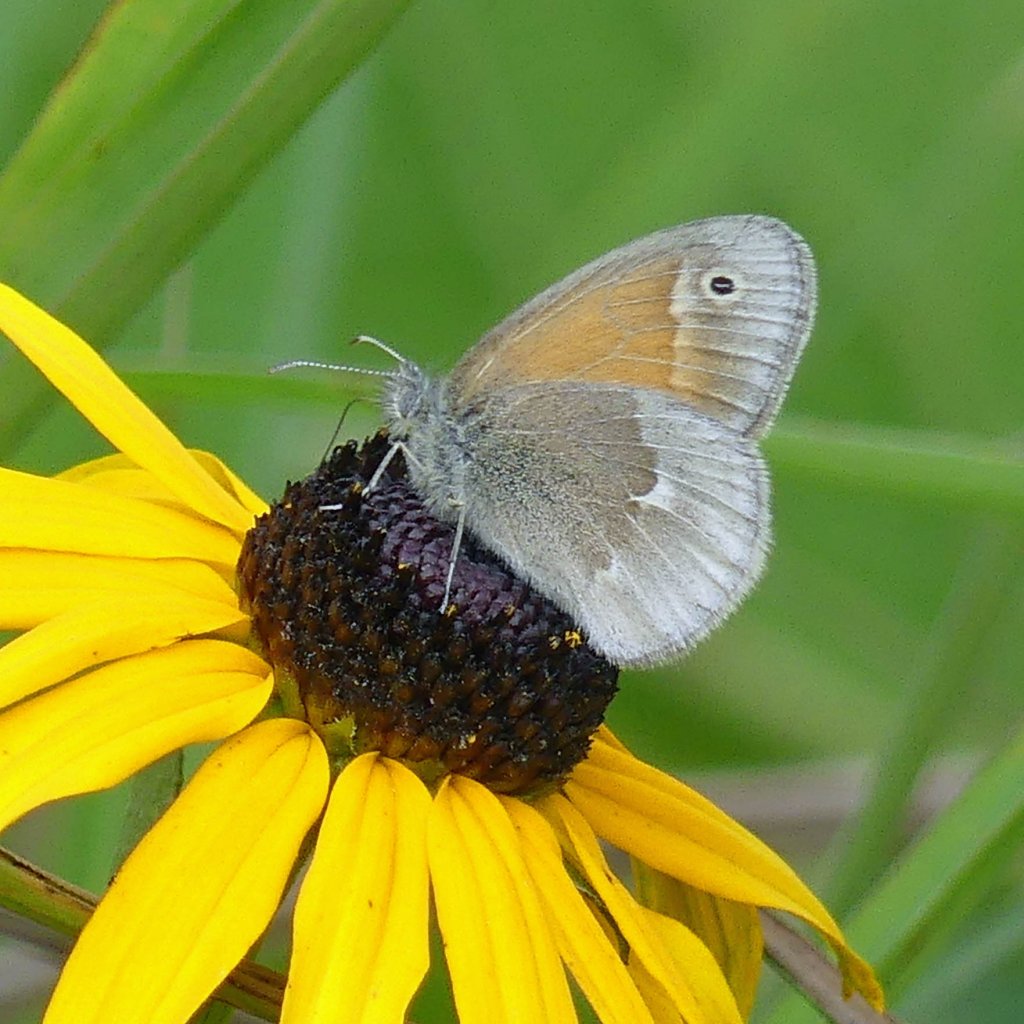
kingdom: Animalia
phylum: Arthropoda
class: Insecta
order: Lepidoptera
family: Nymphalidae
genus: Coenonympha
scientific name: Coenonympha tullia
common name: Large Heath
